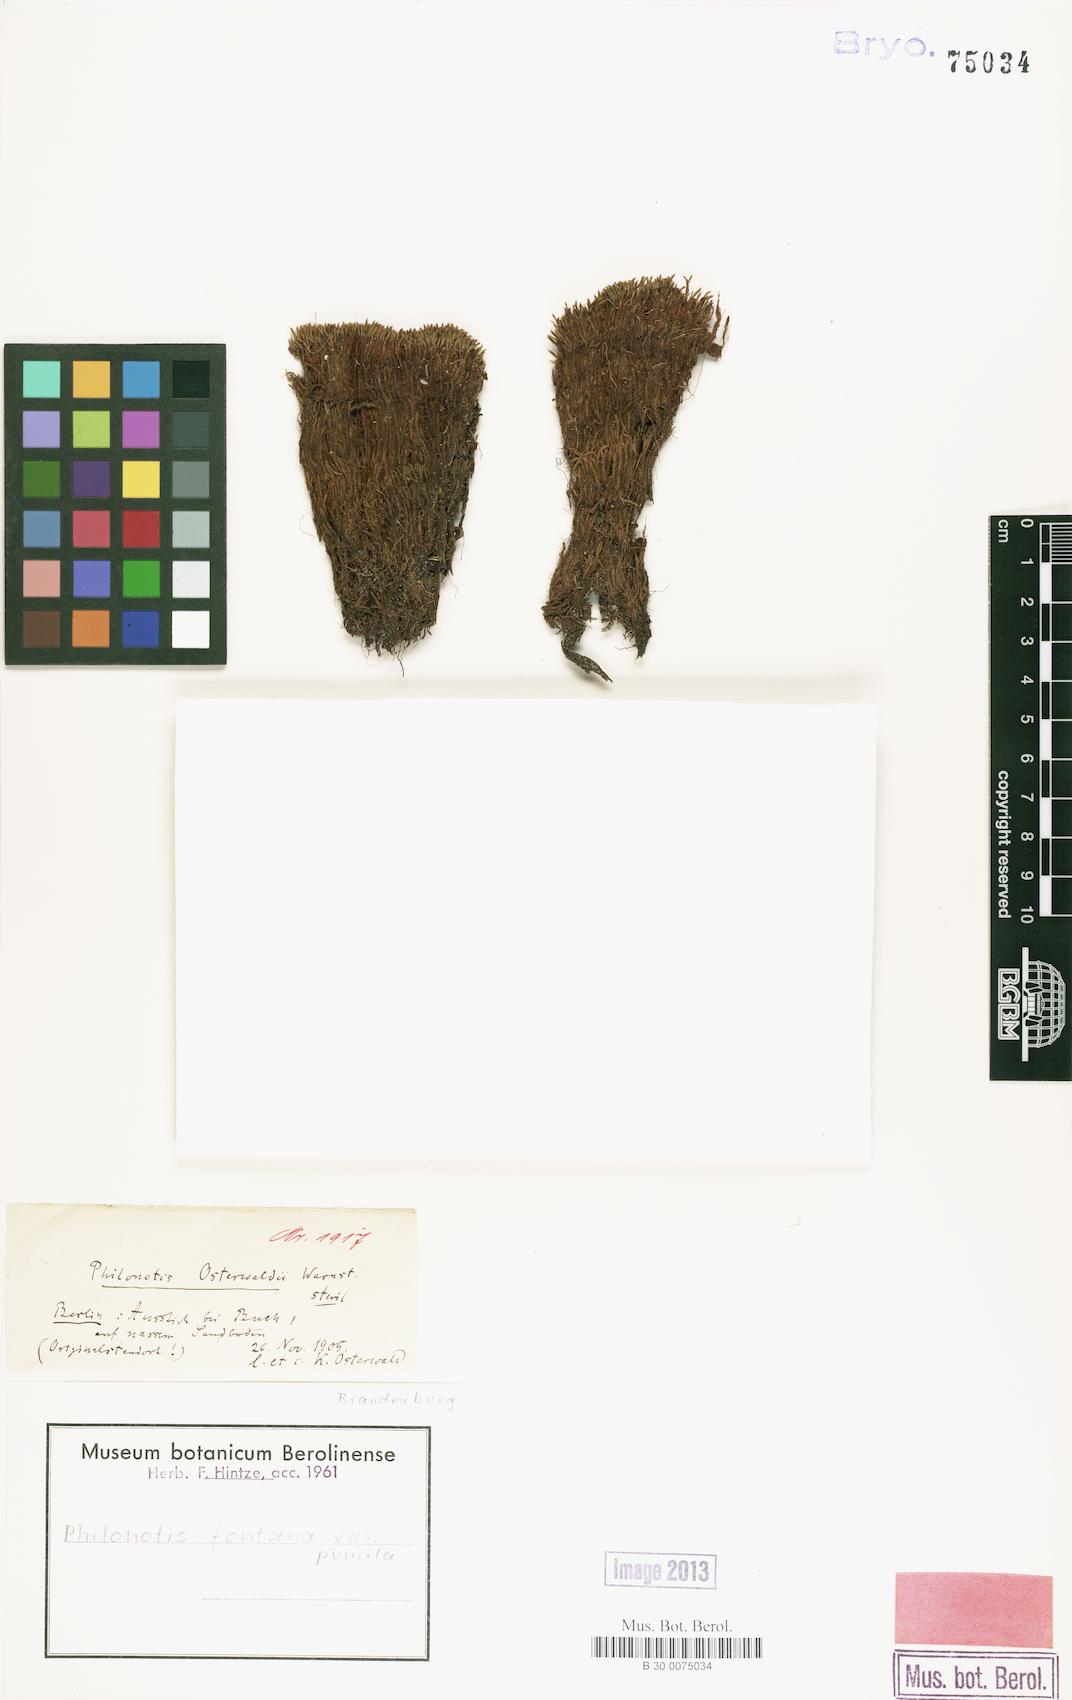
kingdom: Plantae
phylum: Bryophyta
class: Bryopsida
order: Bartramiales
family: Bartramiaceae
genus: Philonotis
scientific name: Philonotis tomentella
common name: Woolly apple moss
